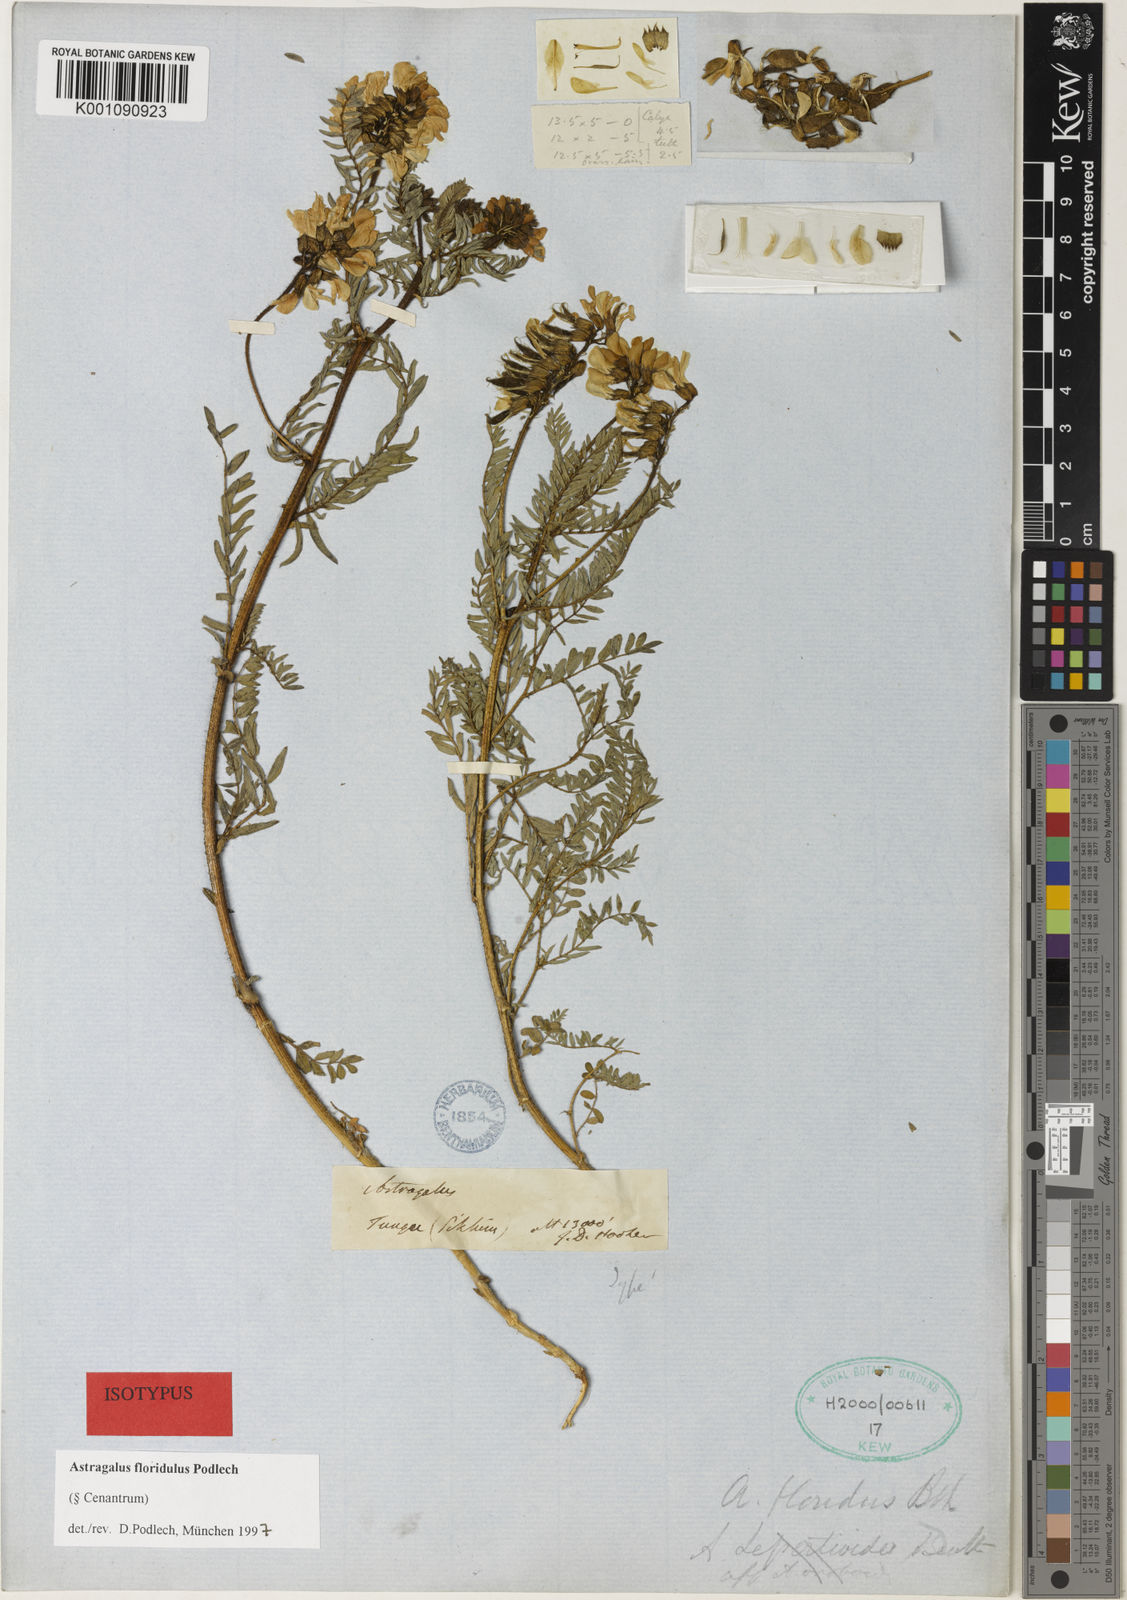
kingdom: Plantae
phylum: Tracheophyta
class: Magnoliopsida
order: Fabales
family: Fabaceae
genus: Astragalus
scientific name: Astragalus
